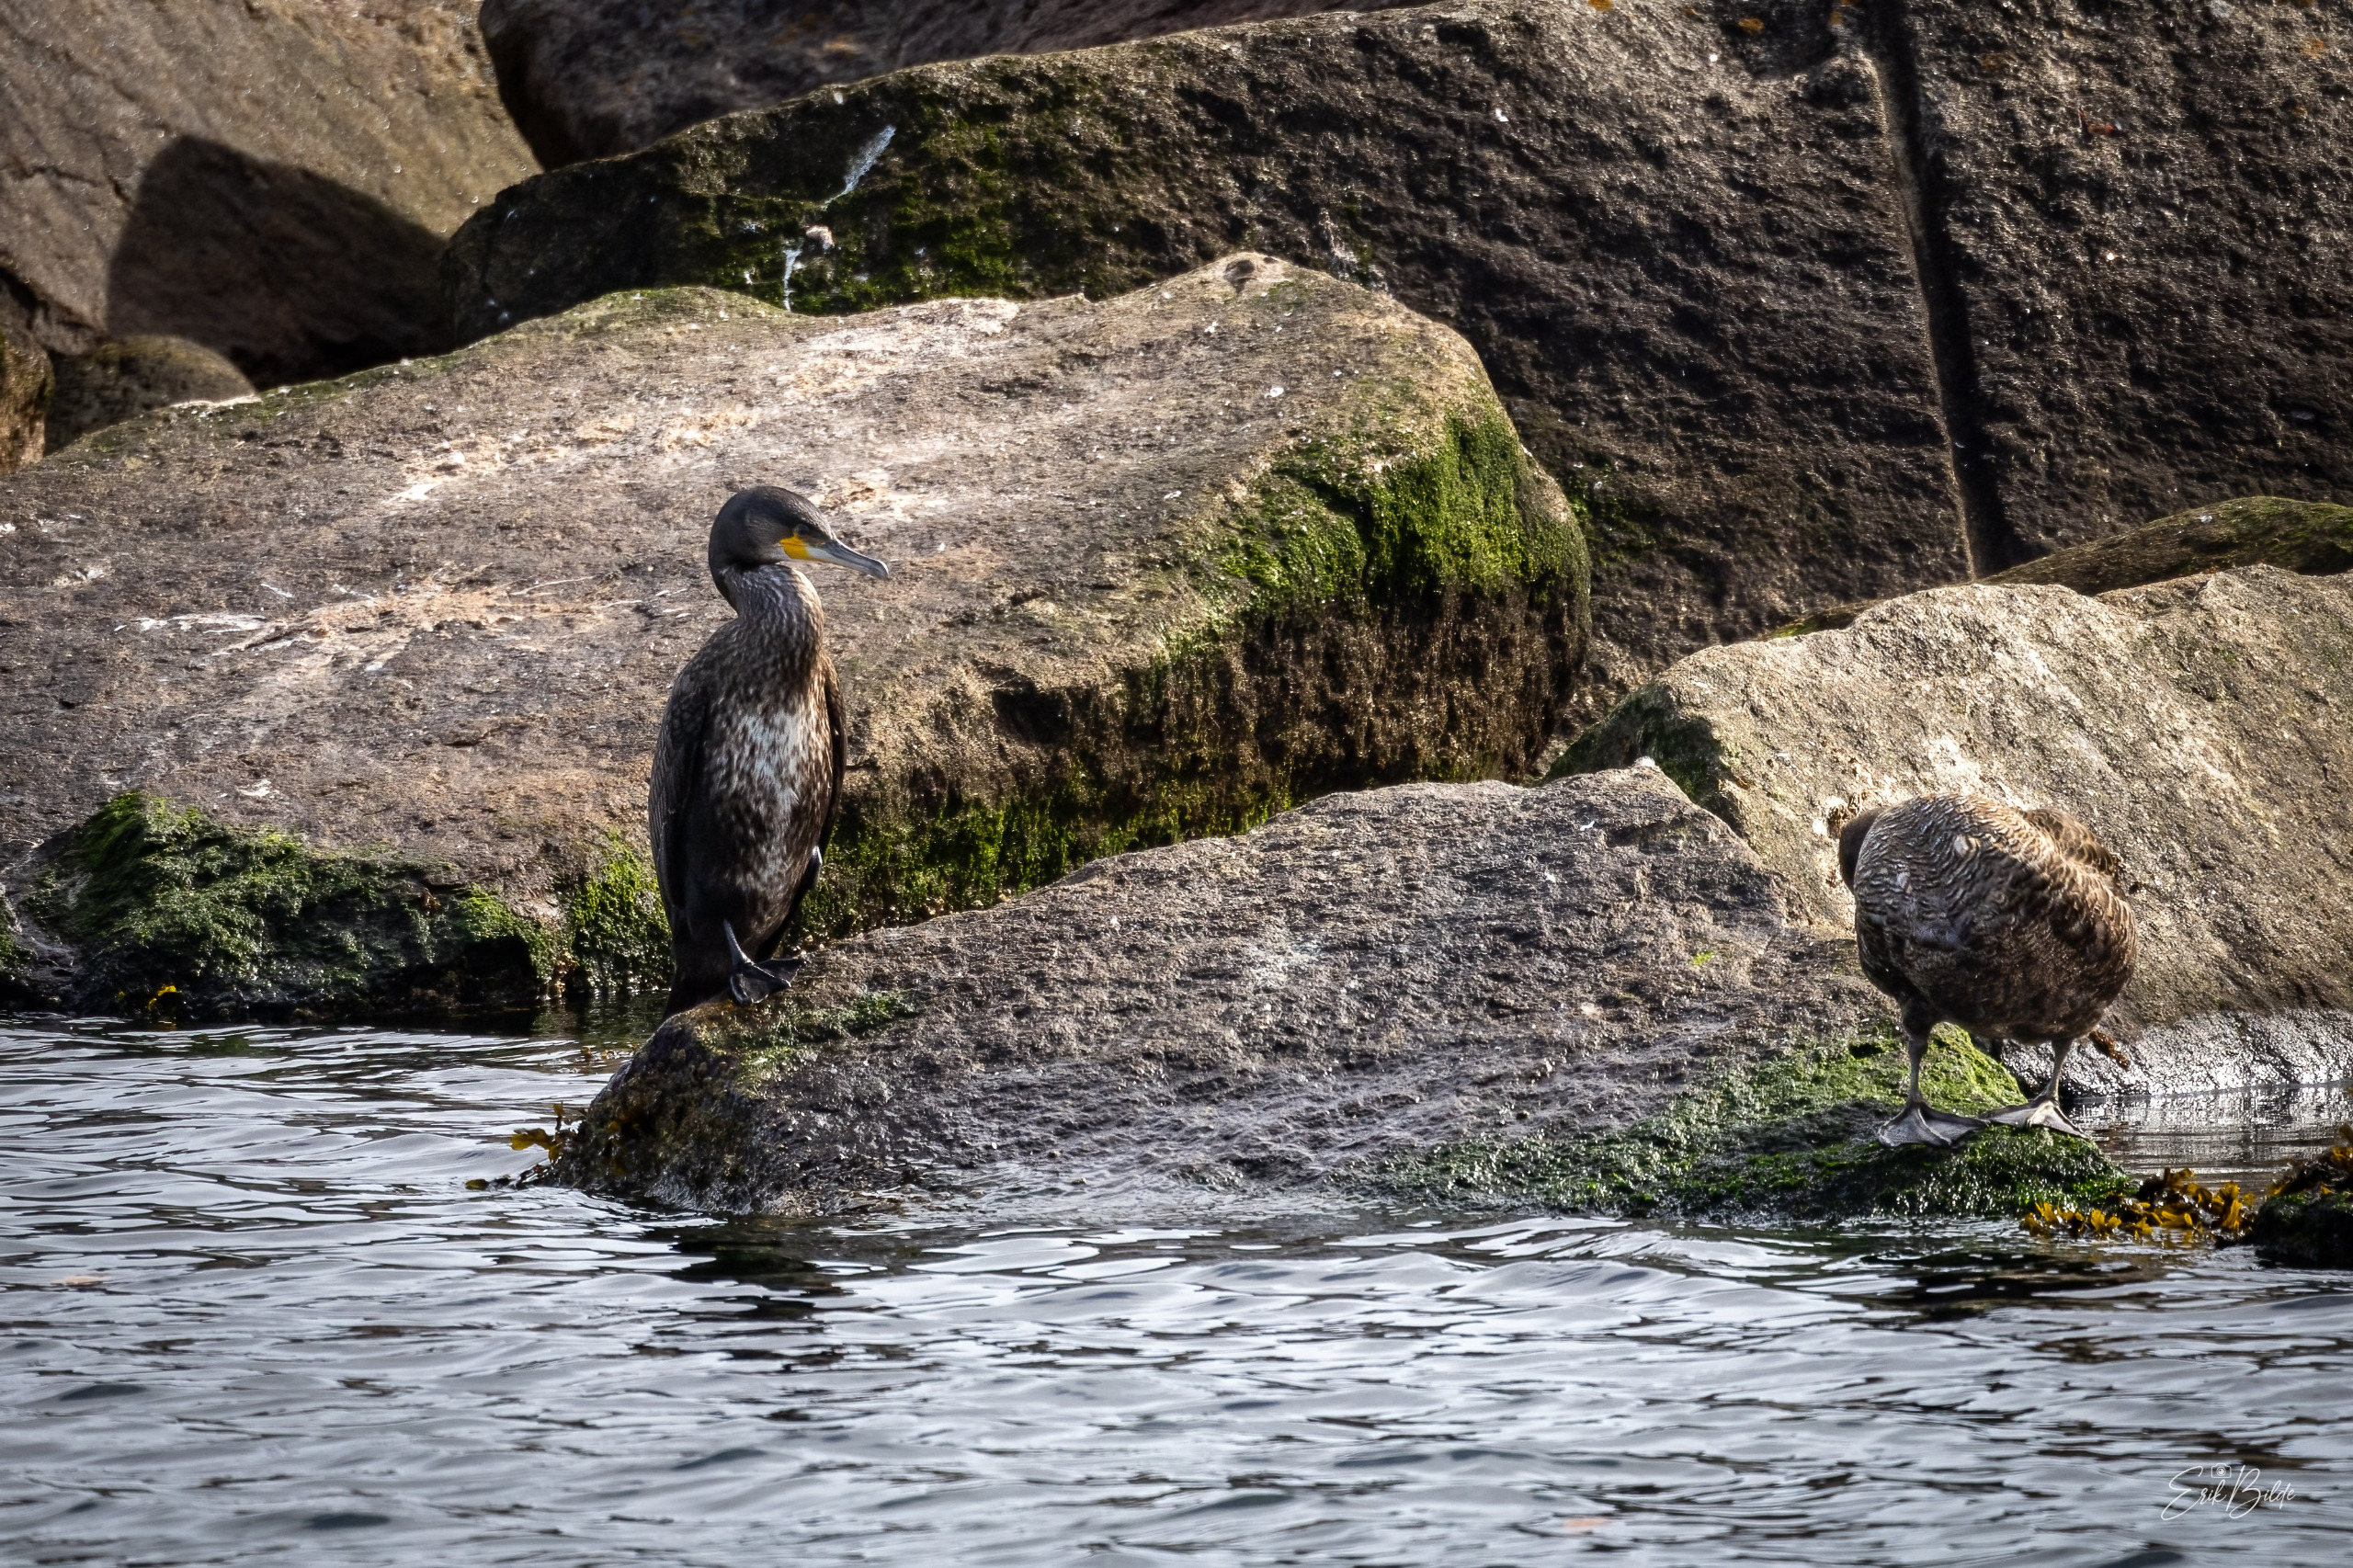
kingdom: Animalia
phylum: Chordata
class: Aves
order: Suliformes
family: Phalacrocoracidae
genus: Phalacrocorax
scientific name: Phalacrocorax carbo
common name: Skarv
